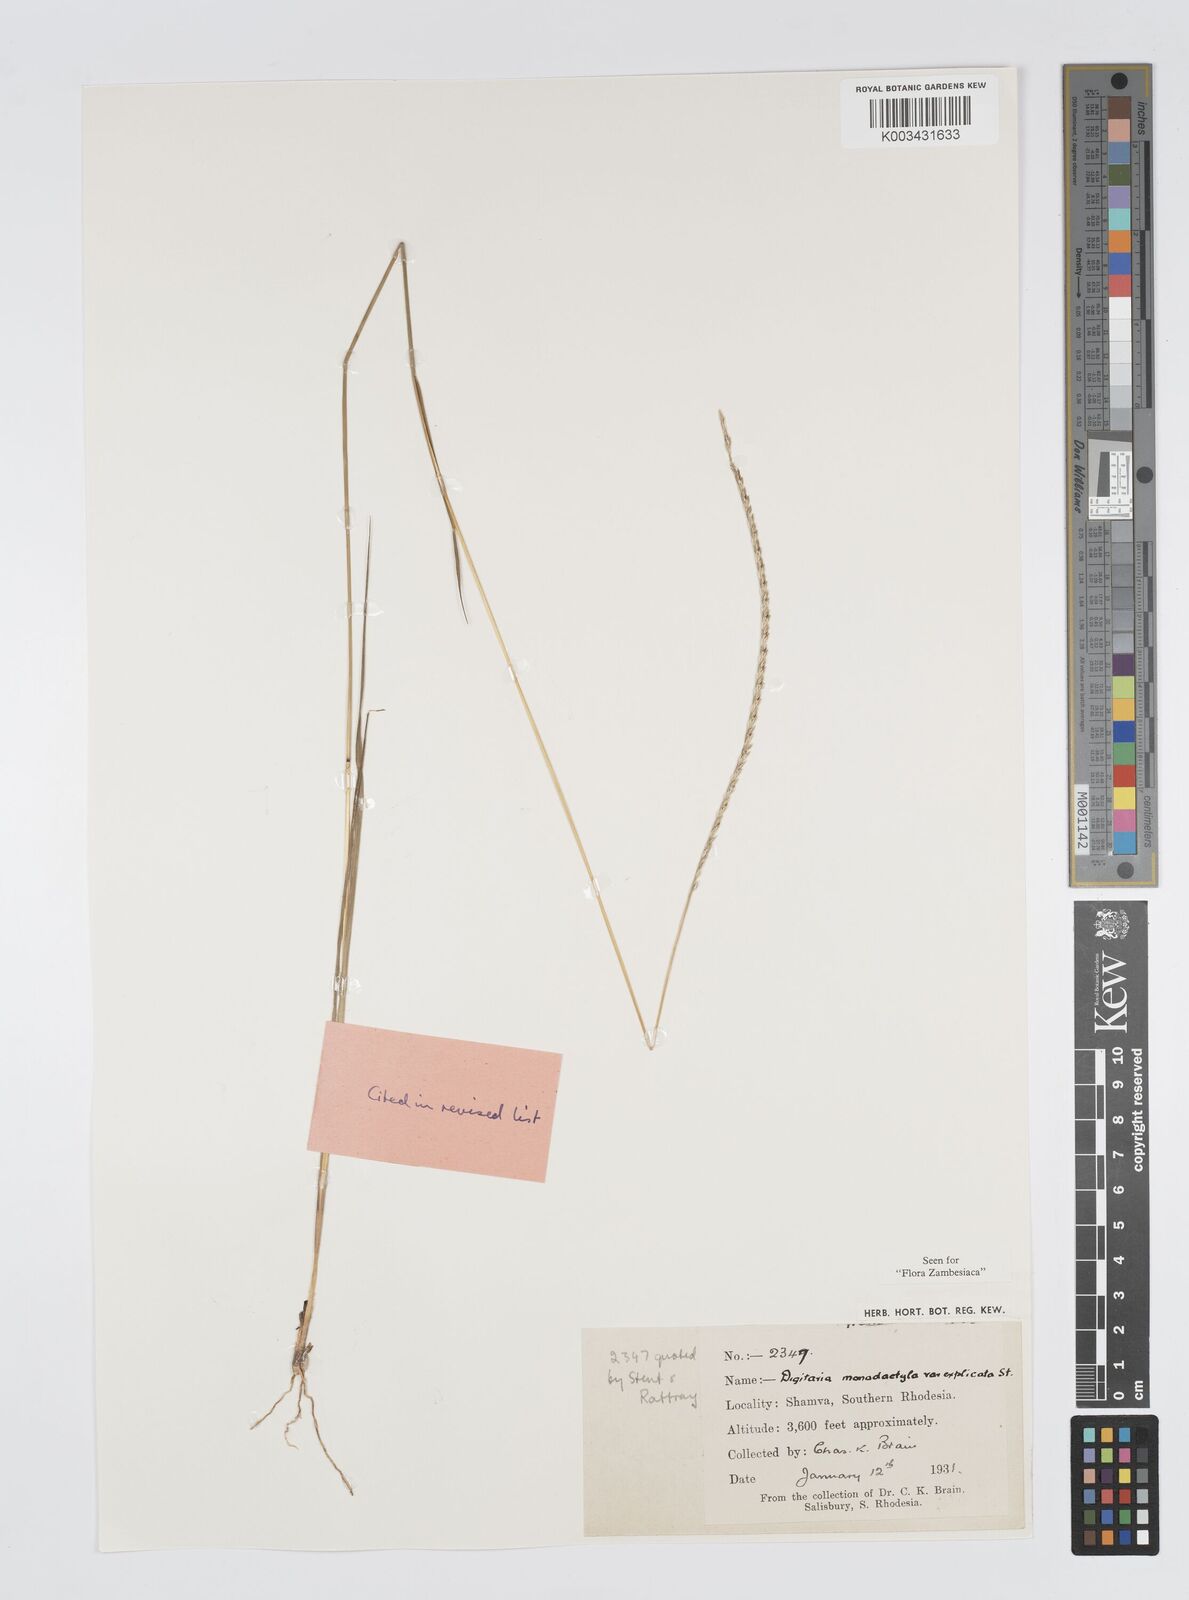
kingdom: Plantae
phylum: Tracheophyta
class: Liliopsida
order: Poales
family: Poaceae
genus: Digitaria
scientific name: Digitaria monodactyla
